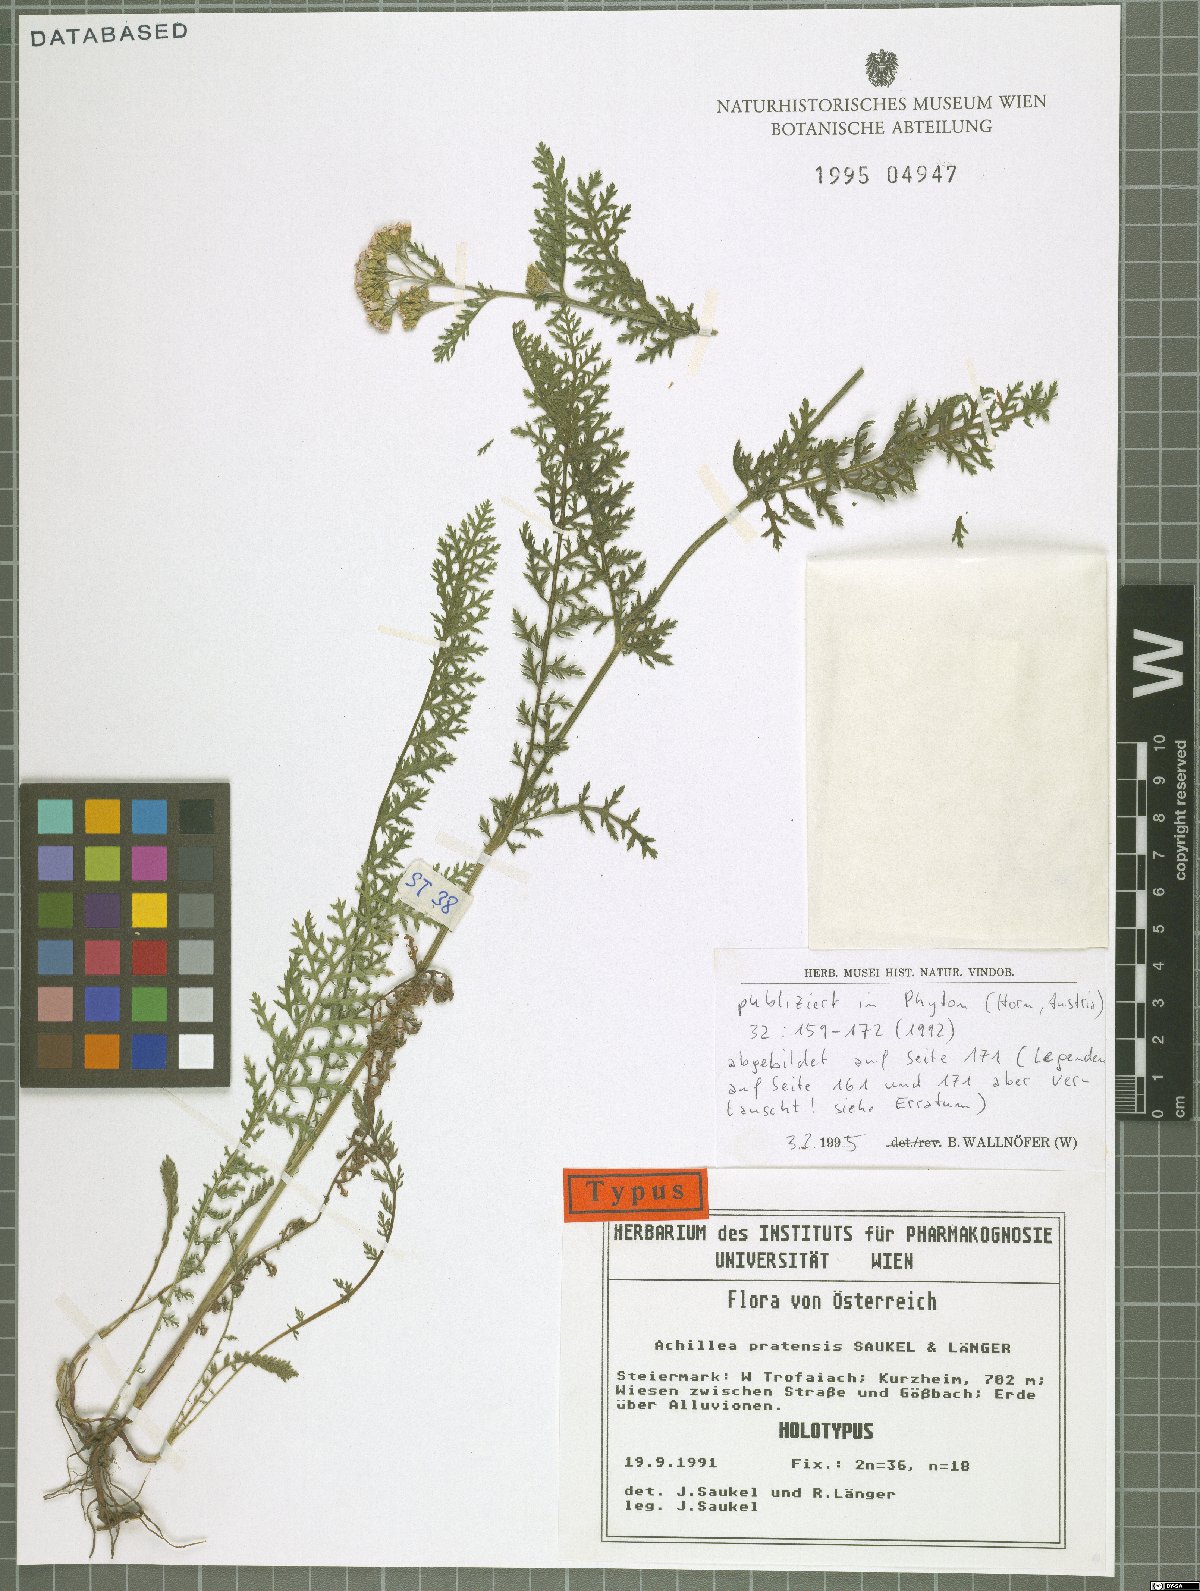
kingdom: Plantae
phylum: Tracheophyta
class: Magnoliopsida
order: Asterales
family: Asteraceae
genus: Achillea
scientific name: Achillea pratensis
